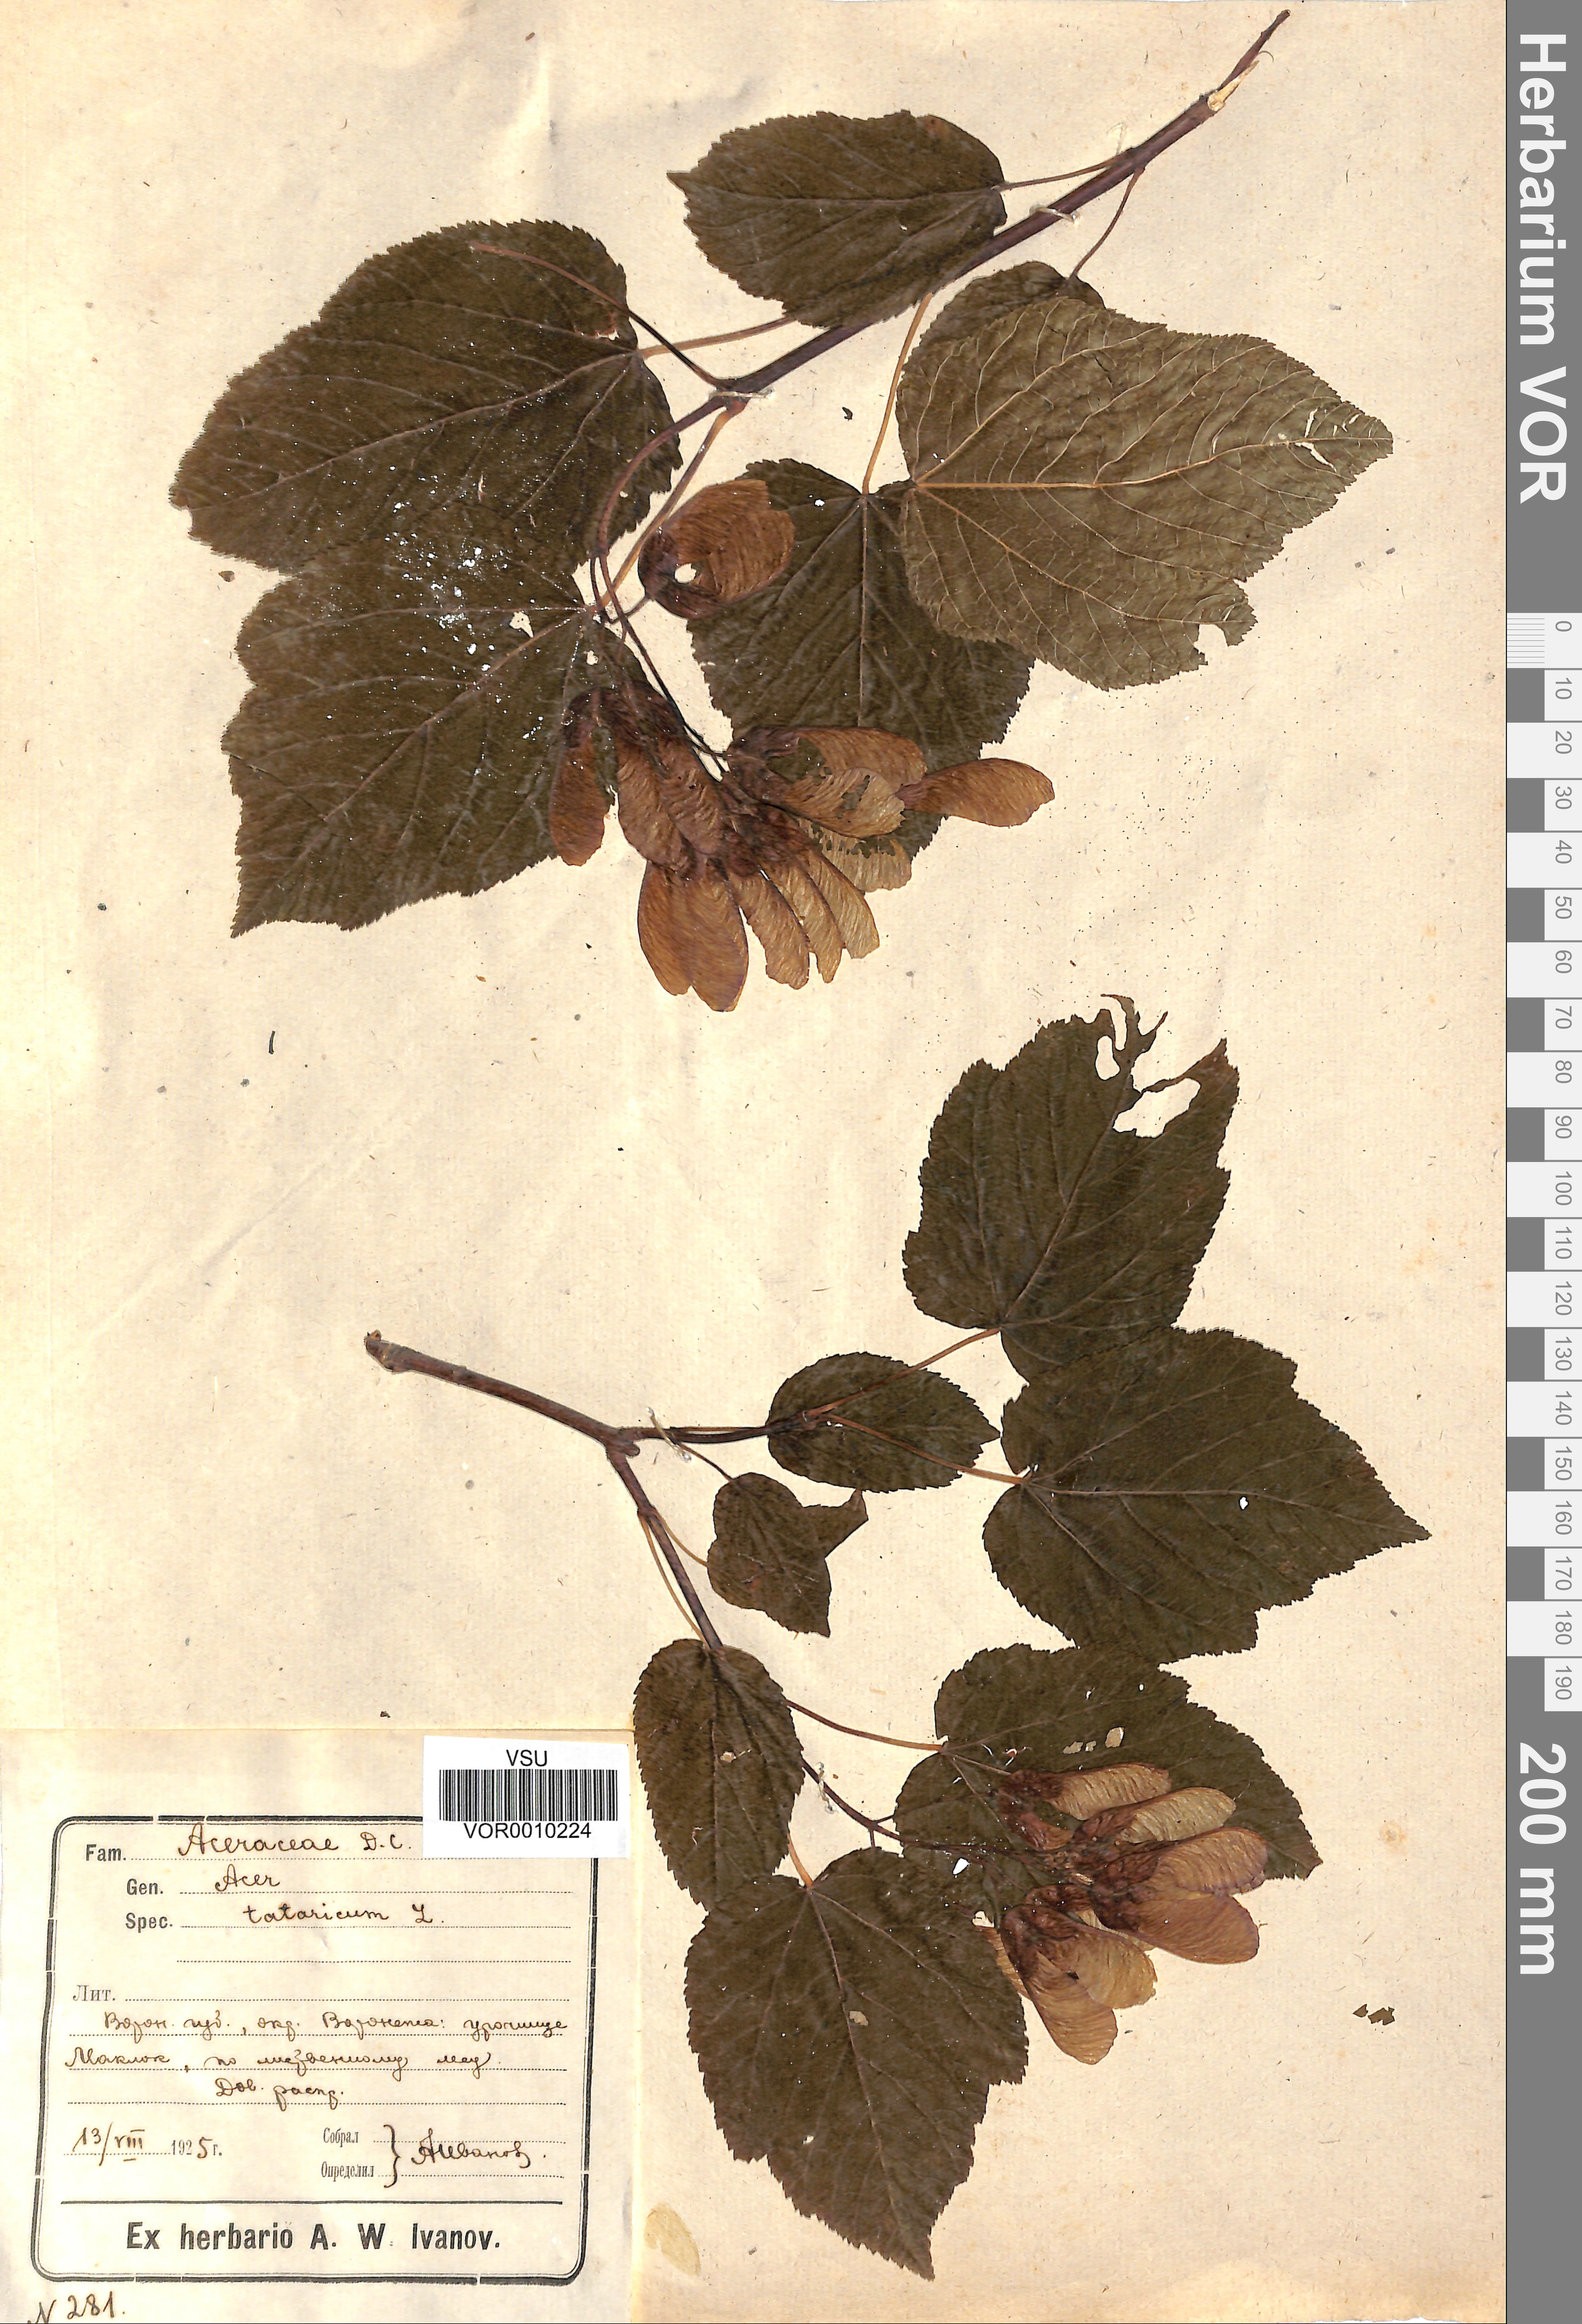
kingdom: Plantae
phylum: Tracheophyta
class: Magnoliopsida
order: Sapindales
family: Sapindaceae
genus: Acer
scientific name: Acer tataricum
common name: Tartar maple
